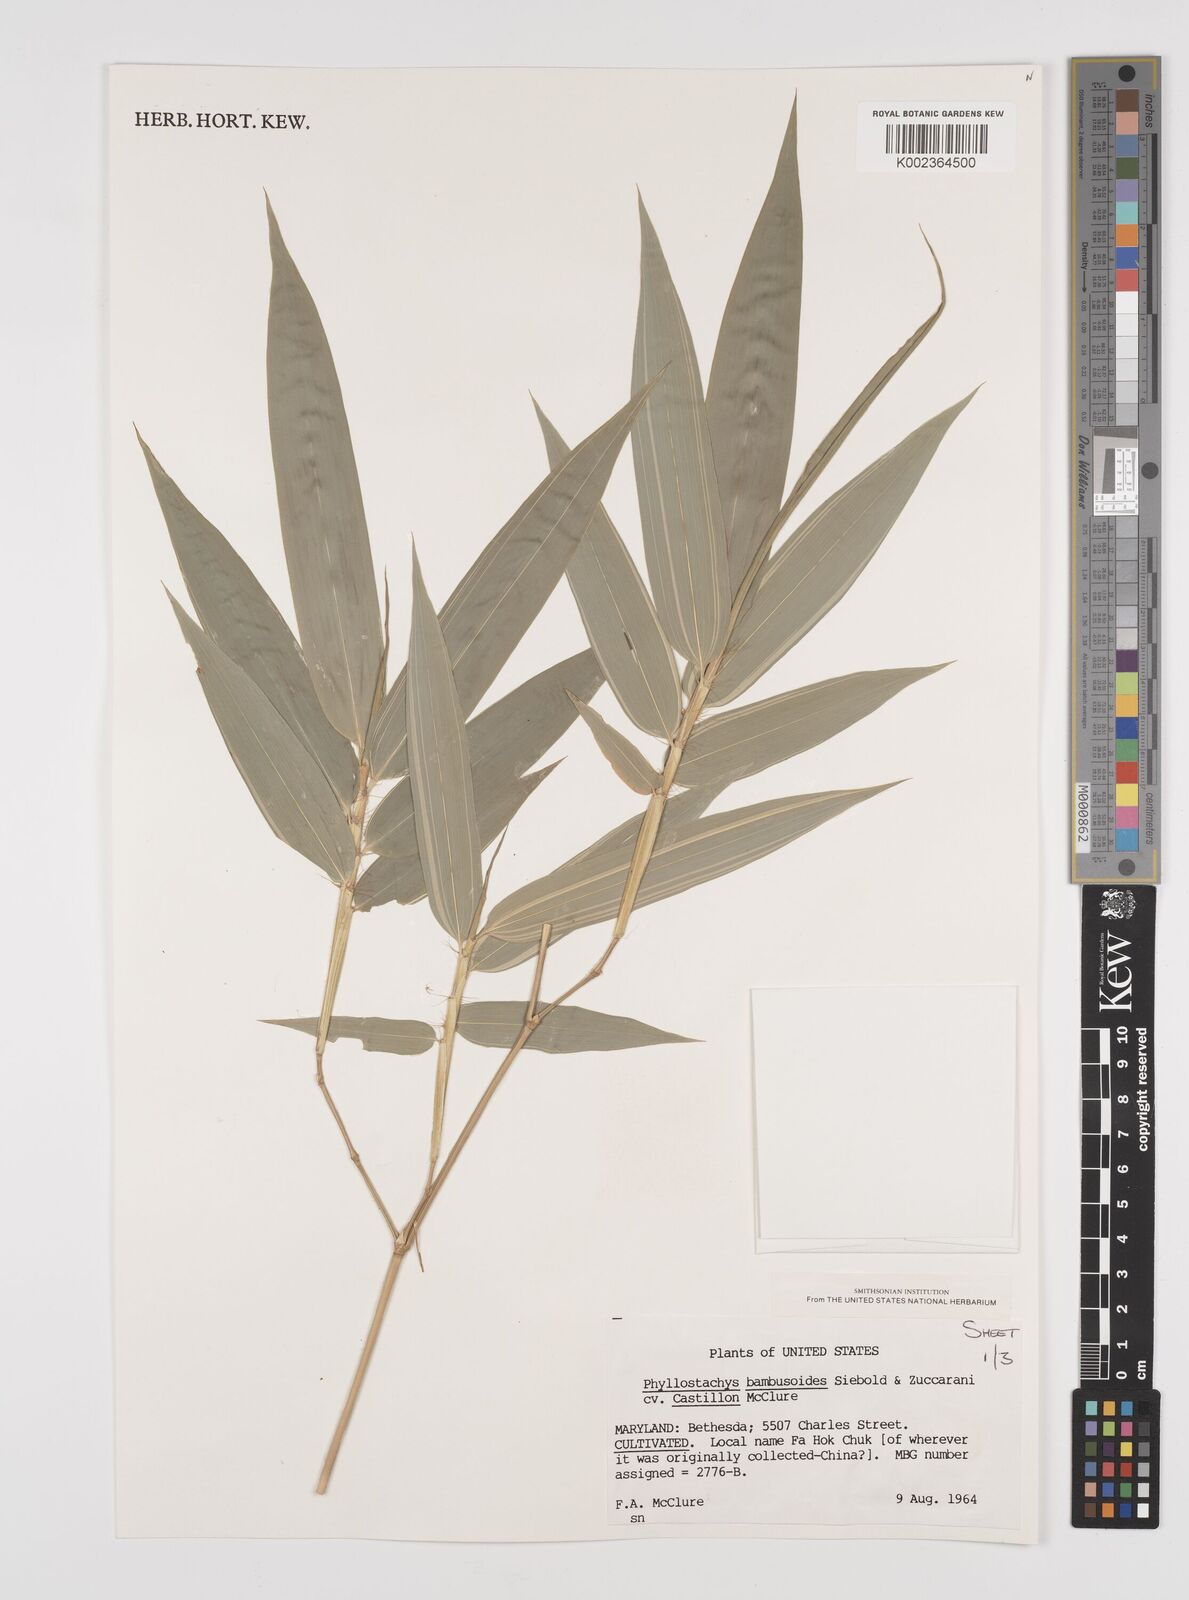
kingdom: Plantae
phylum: Tracheophyta
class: Liliopsida
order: Poales
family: Poaceae
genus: Phyllostachys
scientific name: Phyllostachys reticulata
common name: Bamboo
